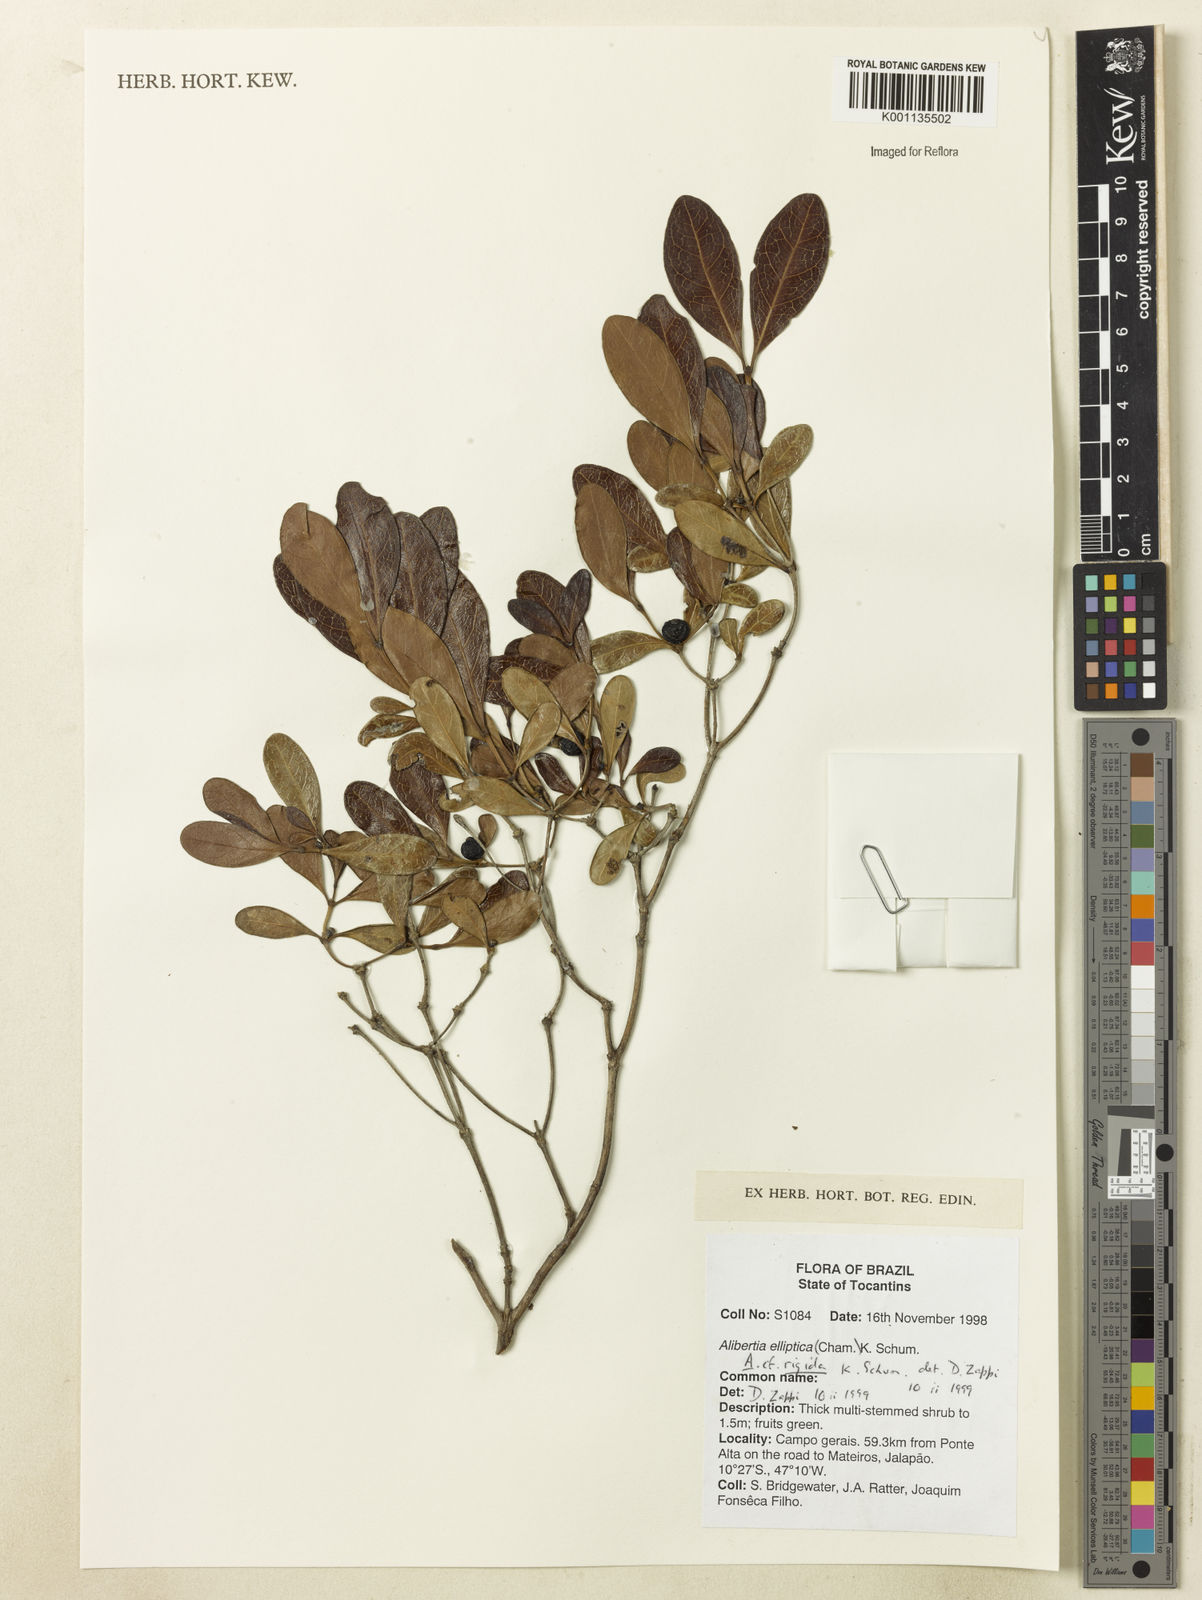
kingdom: Plantae
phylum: Tracheophyta
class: Magnoliopsida
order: Gentianales
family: Rubiaceae
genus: Cordiera
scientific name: Cordiera rigida
